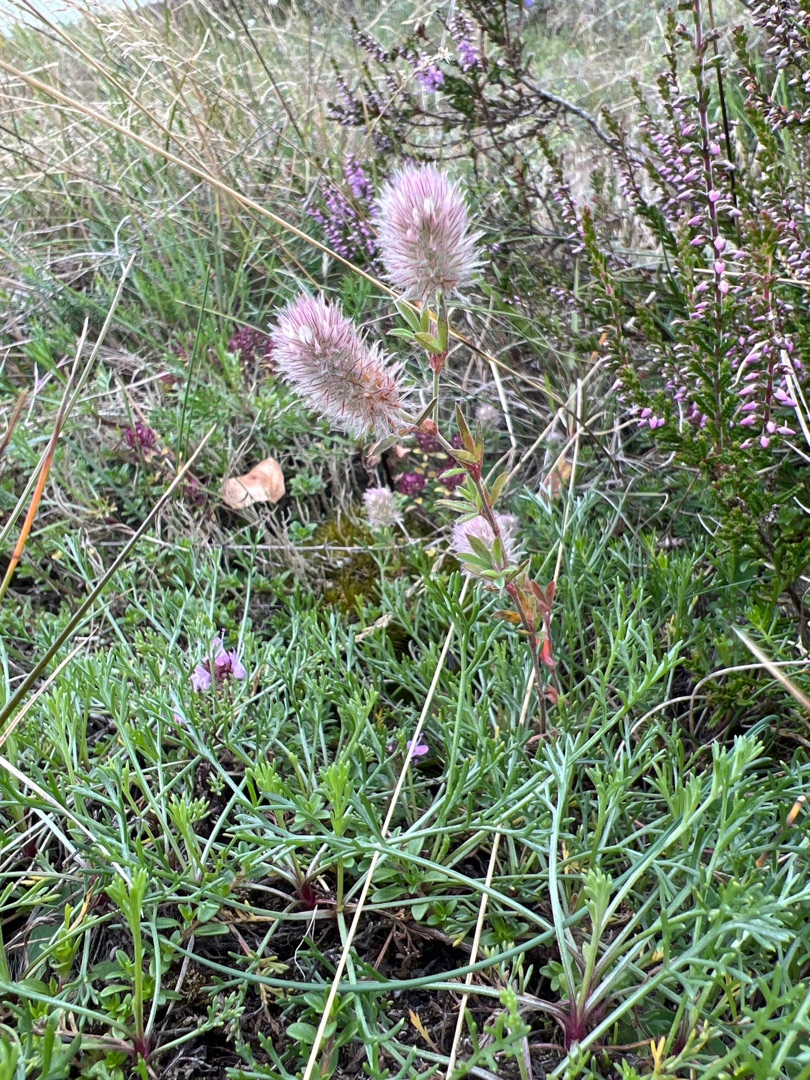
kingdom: Plantae
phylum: Tracheophyta
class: Magnoliopsida
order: Fabales
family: Fabaceae
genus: Trifolium
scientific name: Trifolium arvense
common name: Hare-kløver
